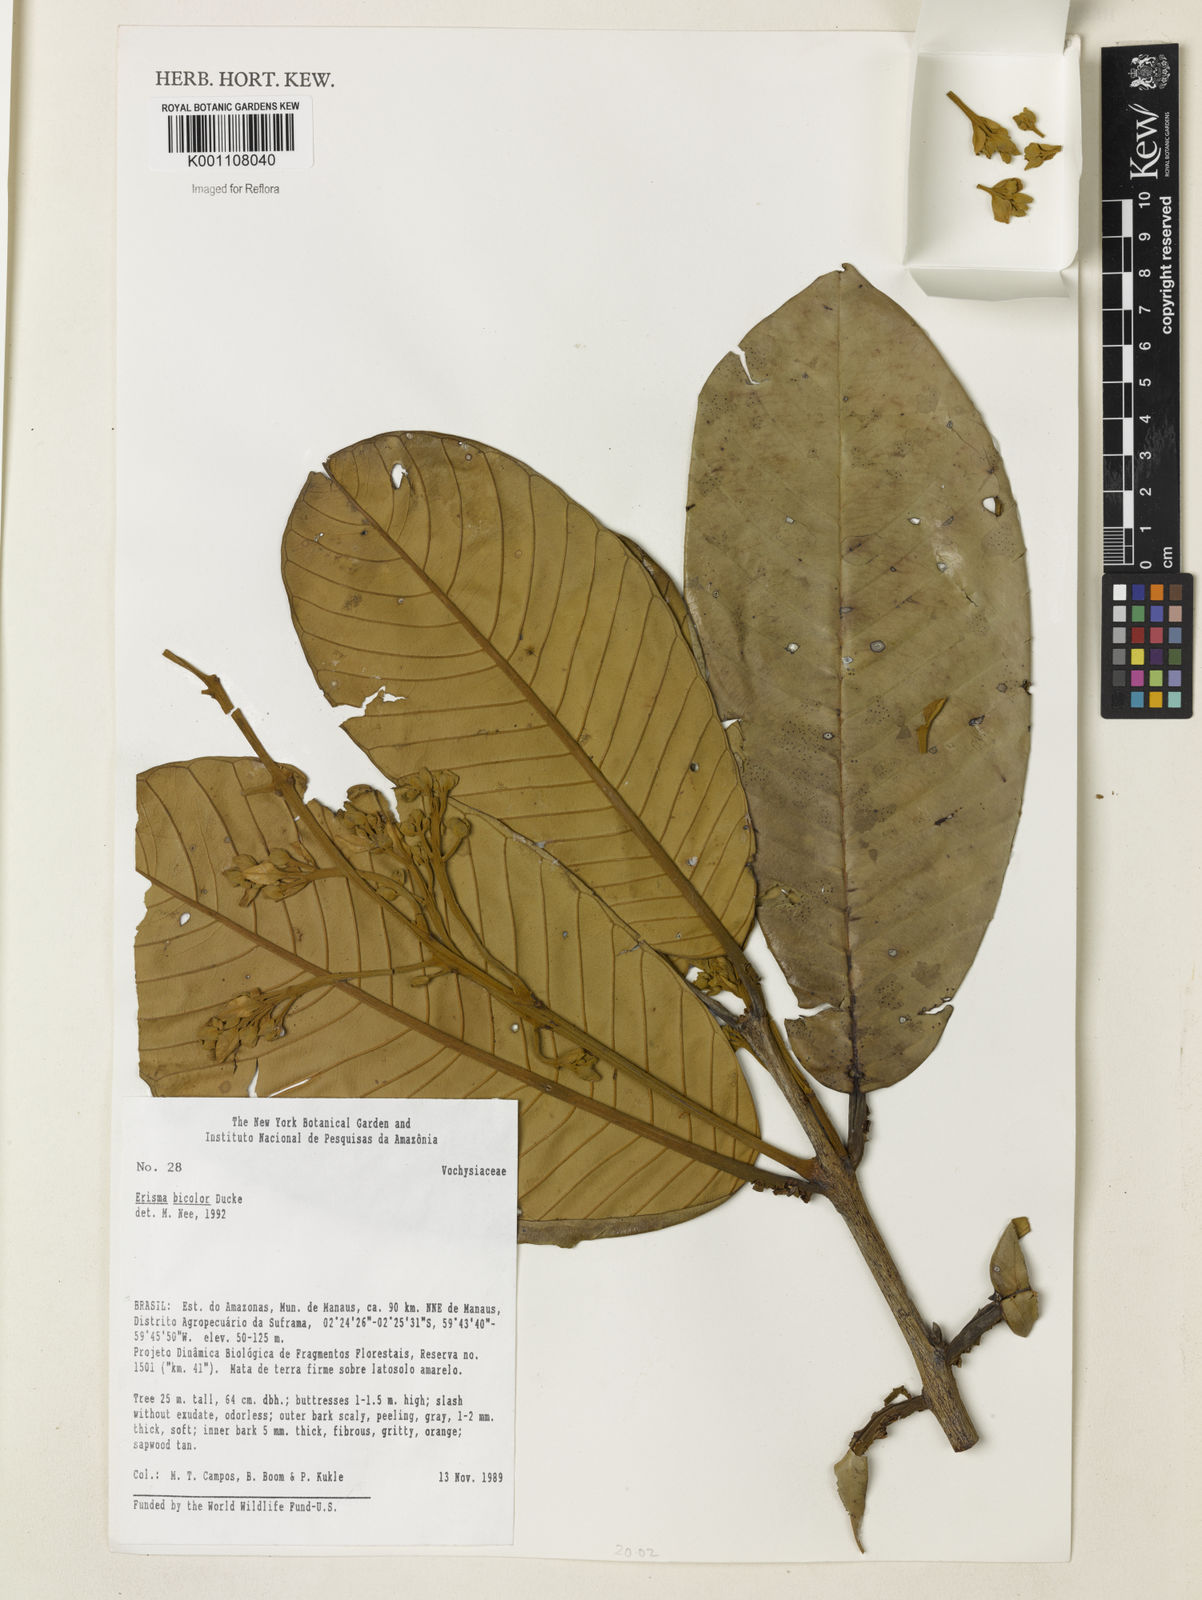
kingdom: Plantae
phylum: Tracheophyta
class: Magnoliopsida
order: Myrtales
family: Vochysiaceae
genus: Erisma
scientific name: Erisma bicolor
